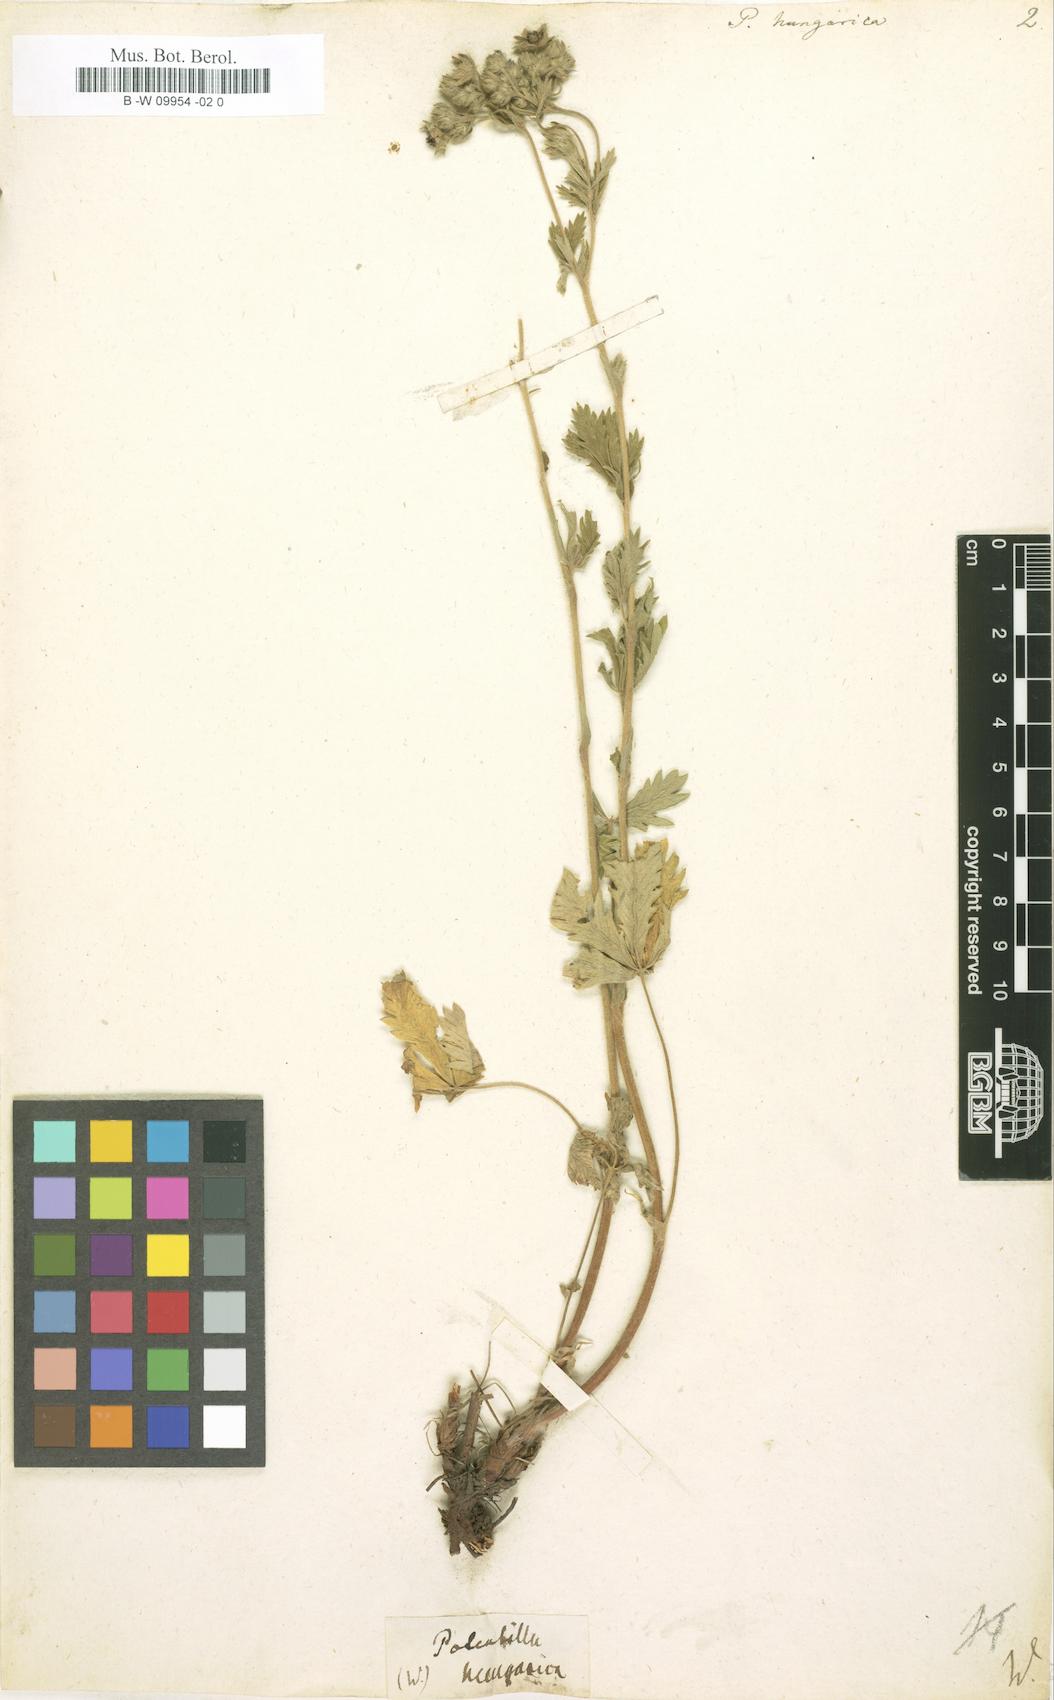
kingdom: Plantae
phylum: Tracheophyta
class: Magnoliopsida
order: Rosales
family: Rosaceae
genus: Potentilla
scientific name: Potentilla inclinata
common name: Grey cinquefoil
